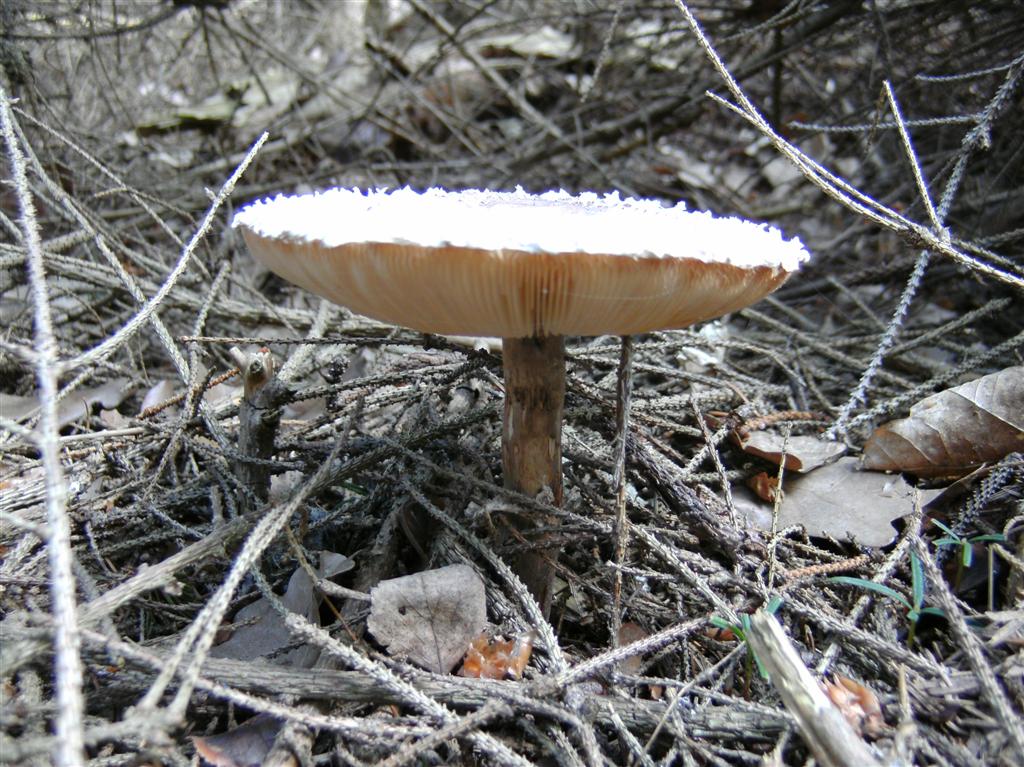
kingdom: Fungi
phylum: Basidiomycota
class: Agaricomycetes
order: Agaricales
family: Agaricaceae
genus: Leucoagaricus
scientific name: Leucoagaricus nympharum
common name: gran-silkehat
